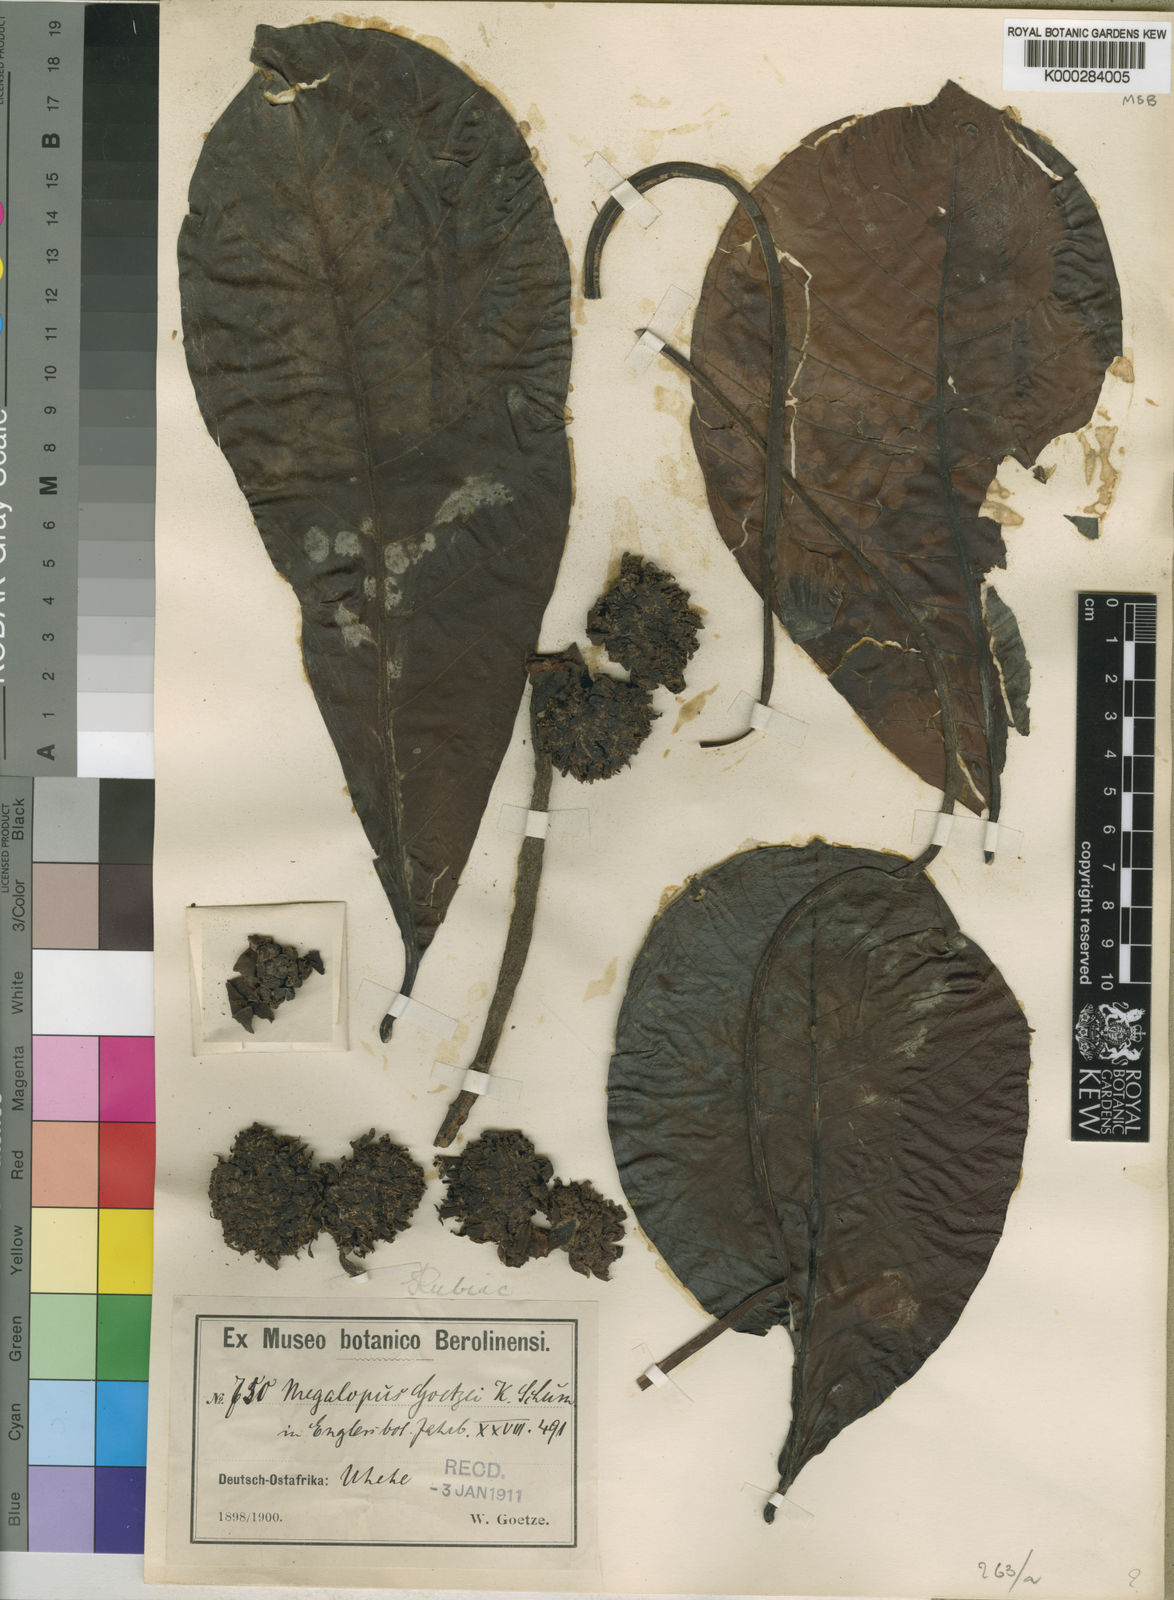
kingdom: Plantae
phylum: Tracheophyta
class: Magnoliopsida
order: Gentianales
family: Rubiaceae
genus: Psychotria
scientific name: Psychotria megalopus
